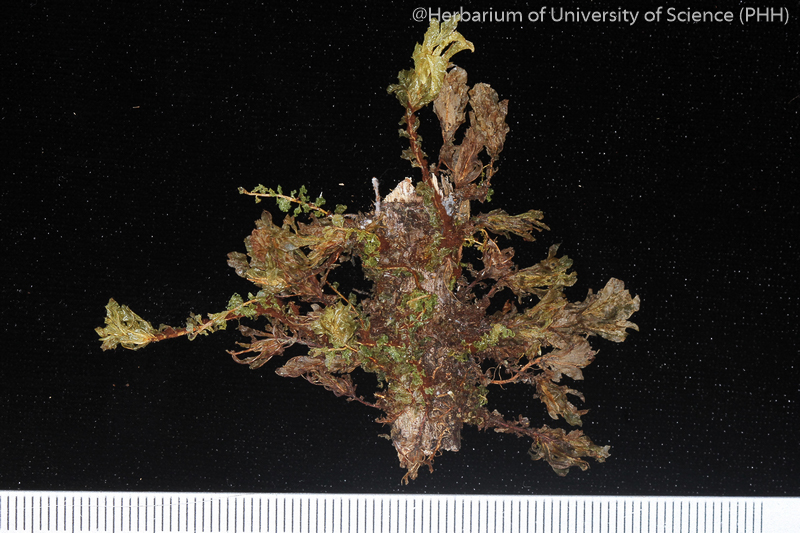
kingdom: Plantae
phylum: Bryophyta
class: Bryopsida
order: Bryales
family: Mniaceae
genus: Orthomnion
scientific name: Orthomnion dilatatum
